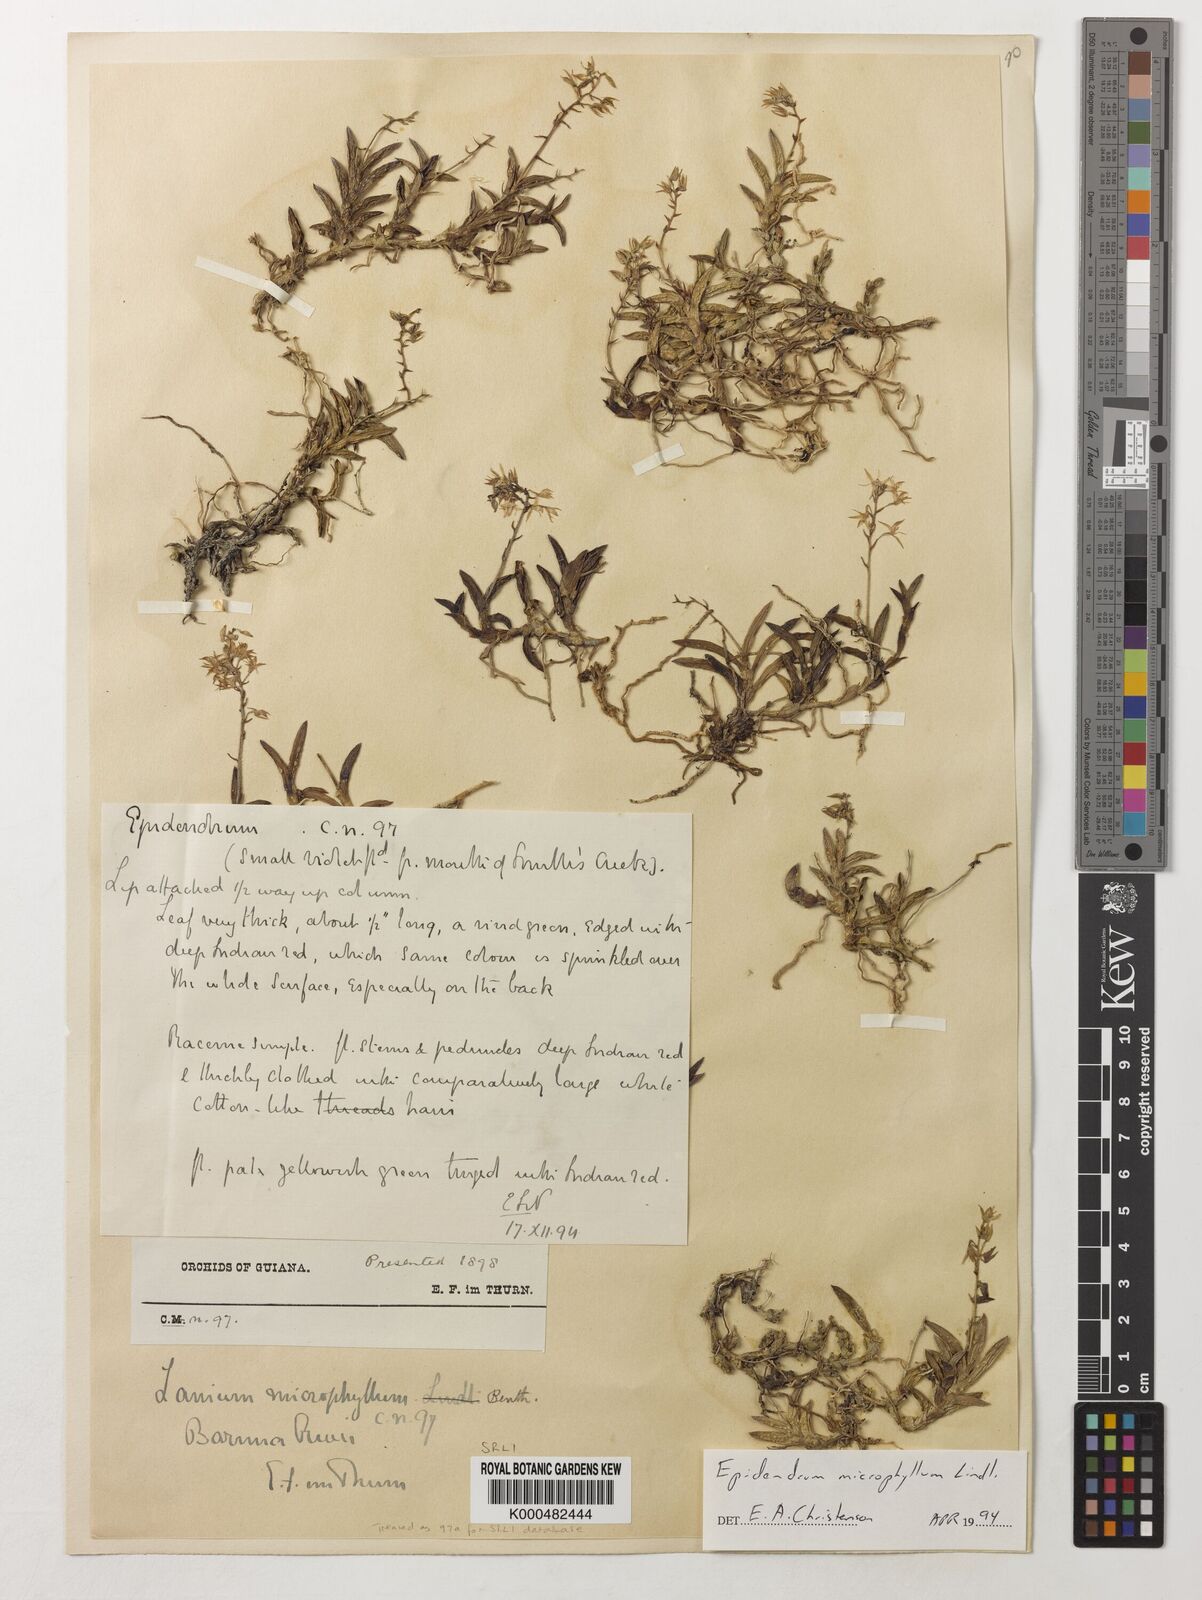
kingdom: Plantae
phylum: Tracheophyta
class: Liliopsida
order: Asparagales
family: Orchidaceae
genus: Epidendrum
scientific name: Epidendrum microphyllum
